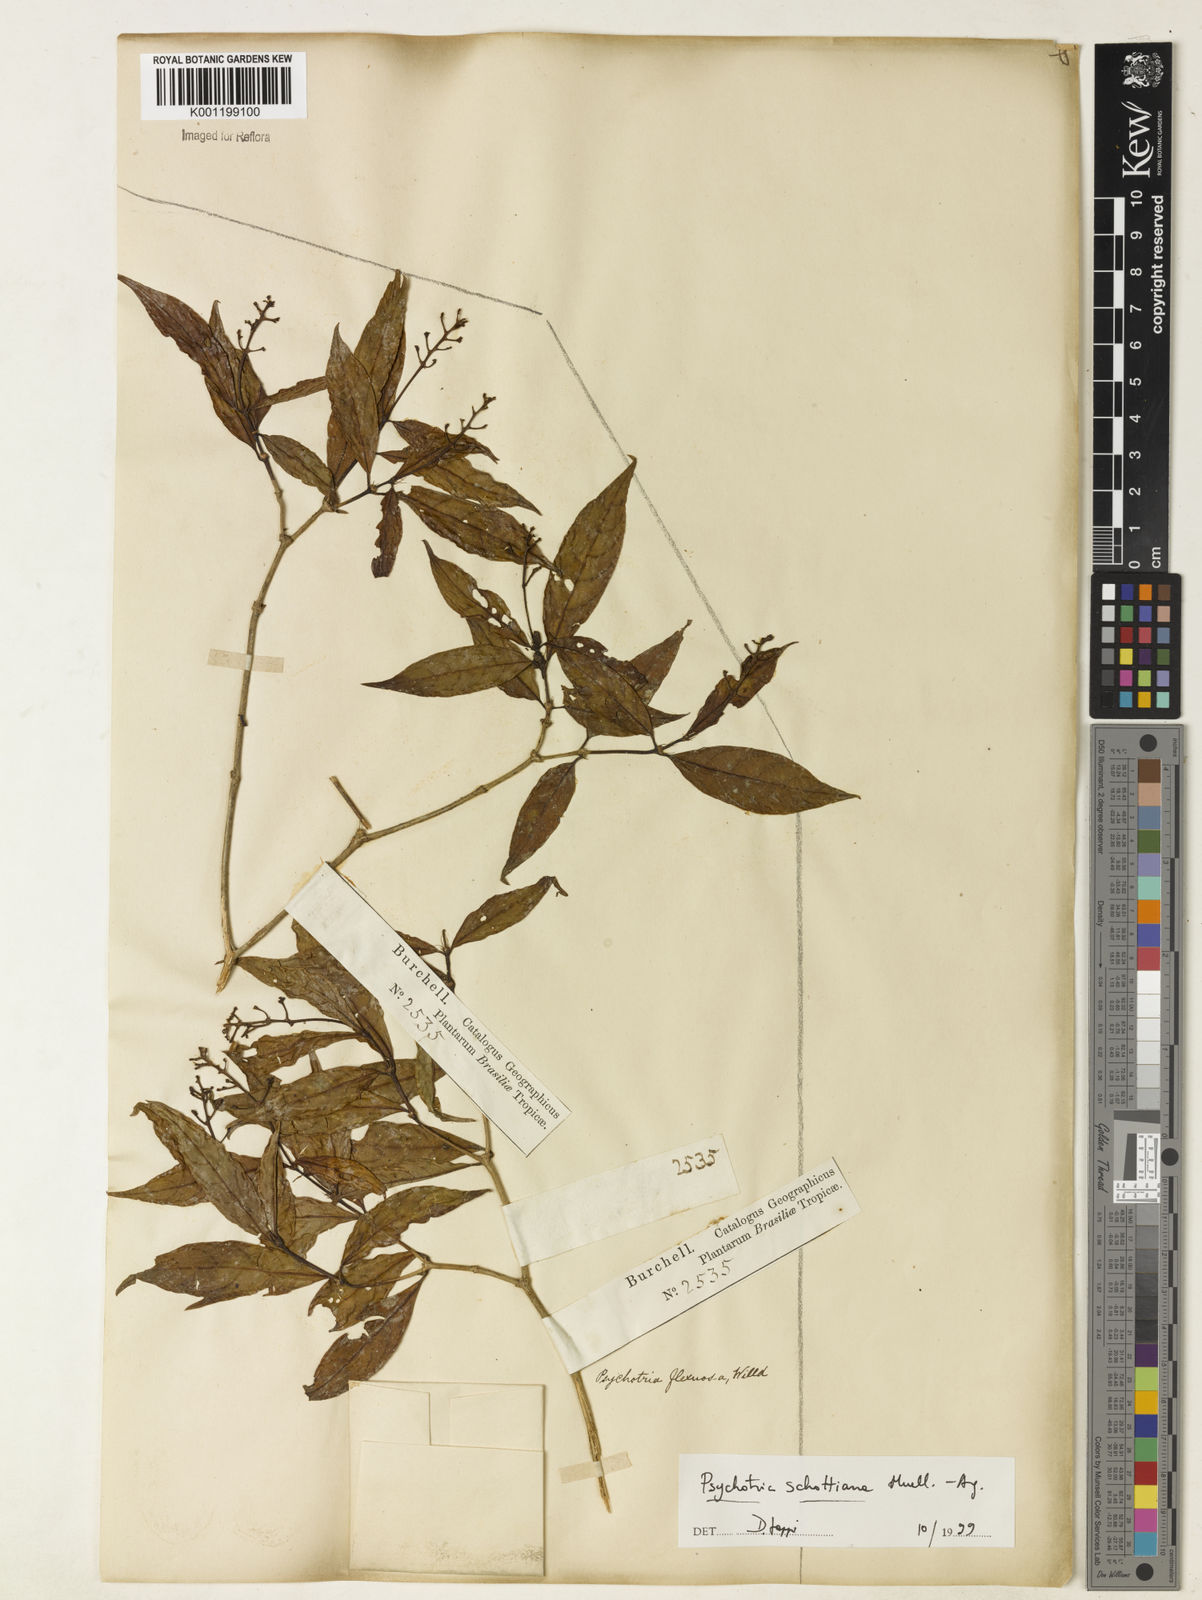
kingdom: Plantae
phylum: Tracheophyta
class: Magnoliopsida
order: Gentianales
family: Rubiaceae
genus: Psychotria
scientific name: Psychotria
